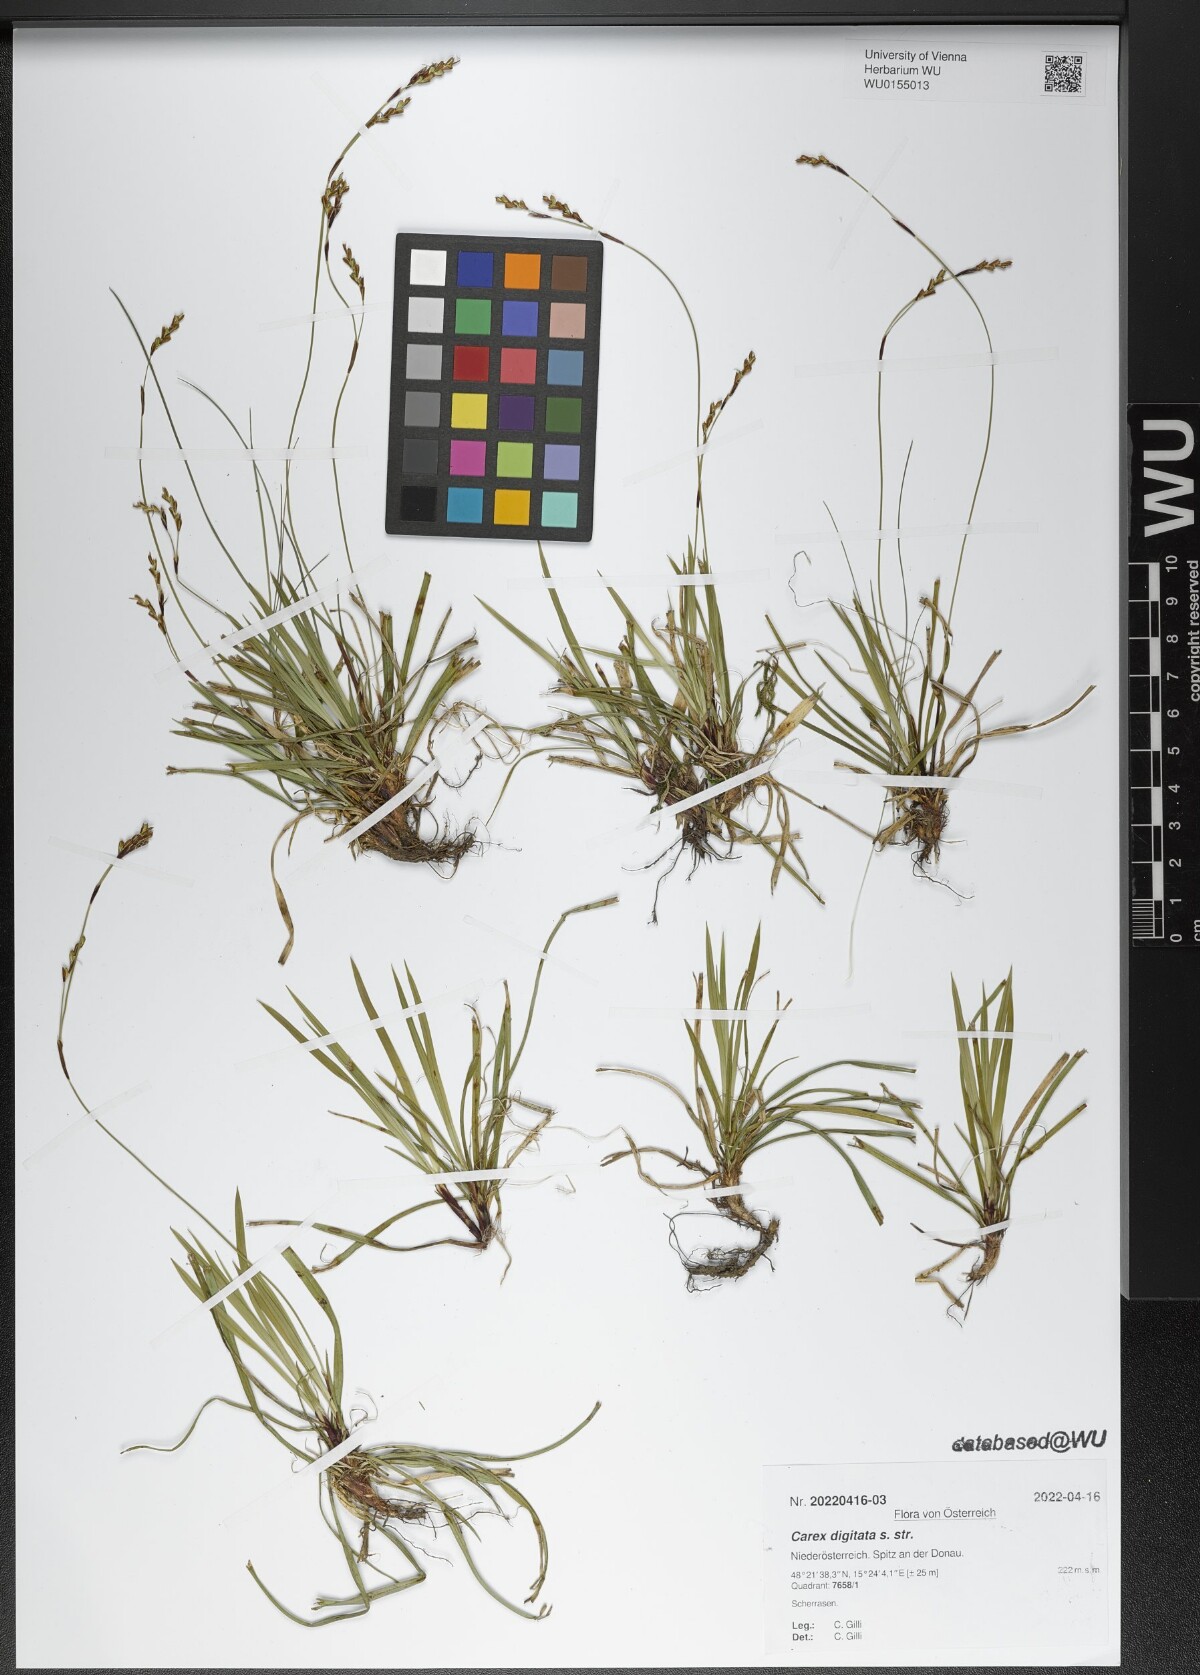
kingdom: Plantae
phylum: Tracheophyta
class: Liliopsida
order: Poales
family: Cyperaceae
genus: Carex
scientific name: Carex digitata
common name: Fingered sedge
